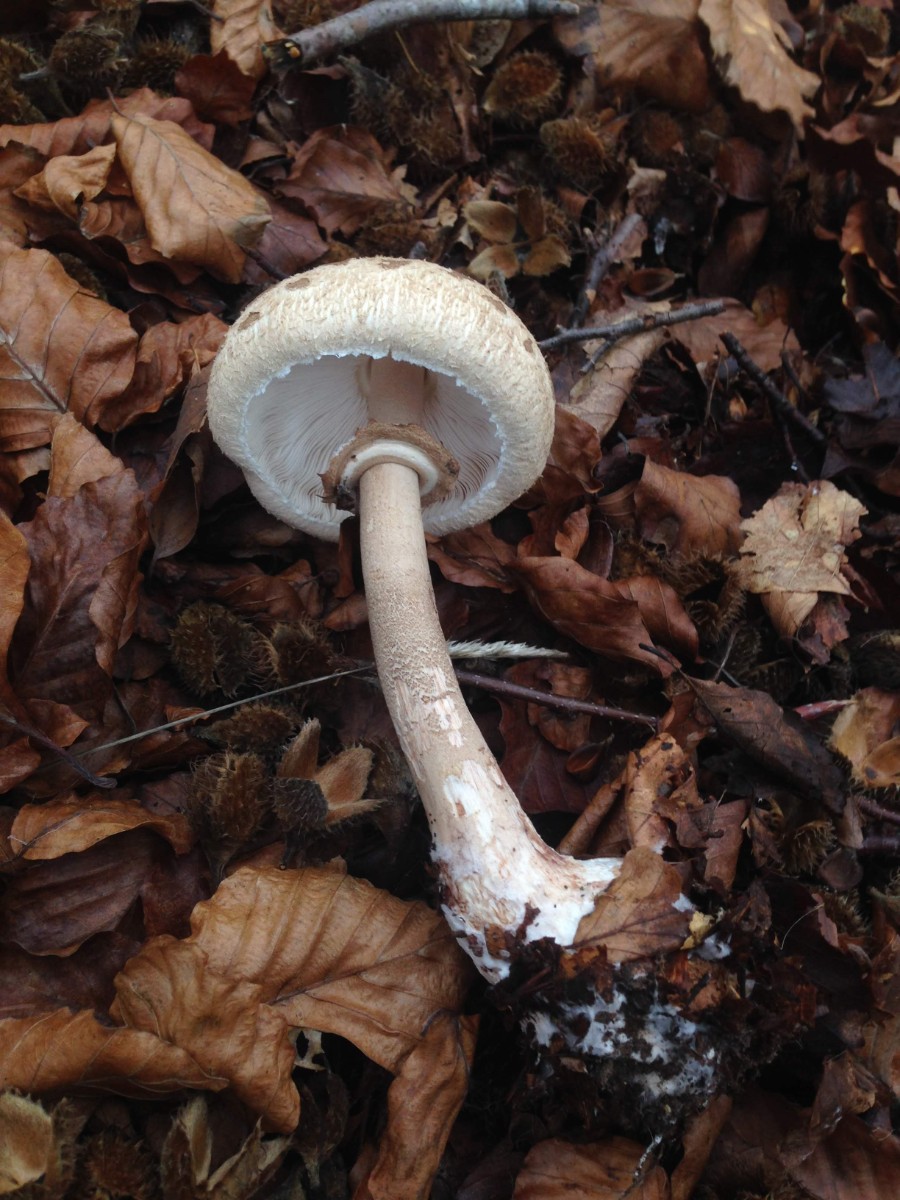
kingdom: Fungi
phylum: Basidiomycota
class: Agaricomycetes
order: Agaricales
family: Agaricaceae
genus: Macrolepiota
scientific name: Macrolepiota mastoidea
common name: puklet kæmpeparasolhat
